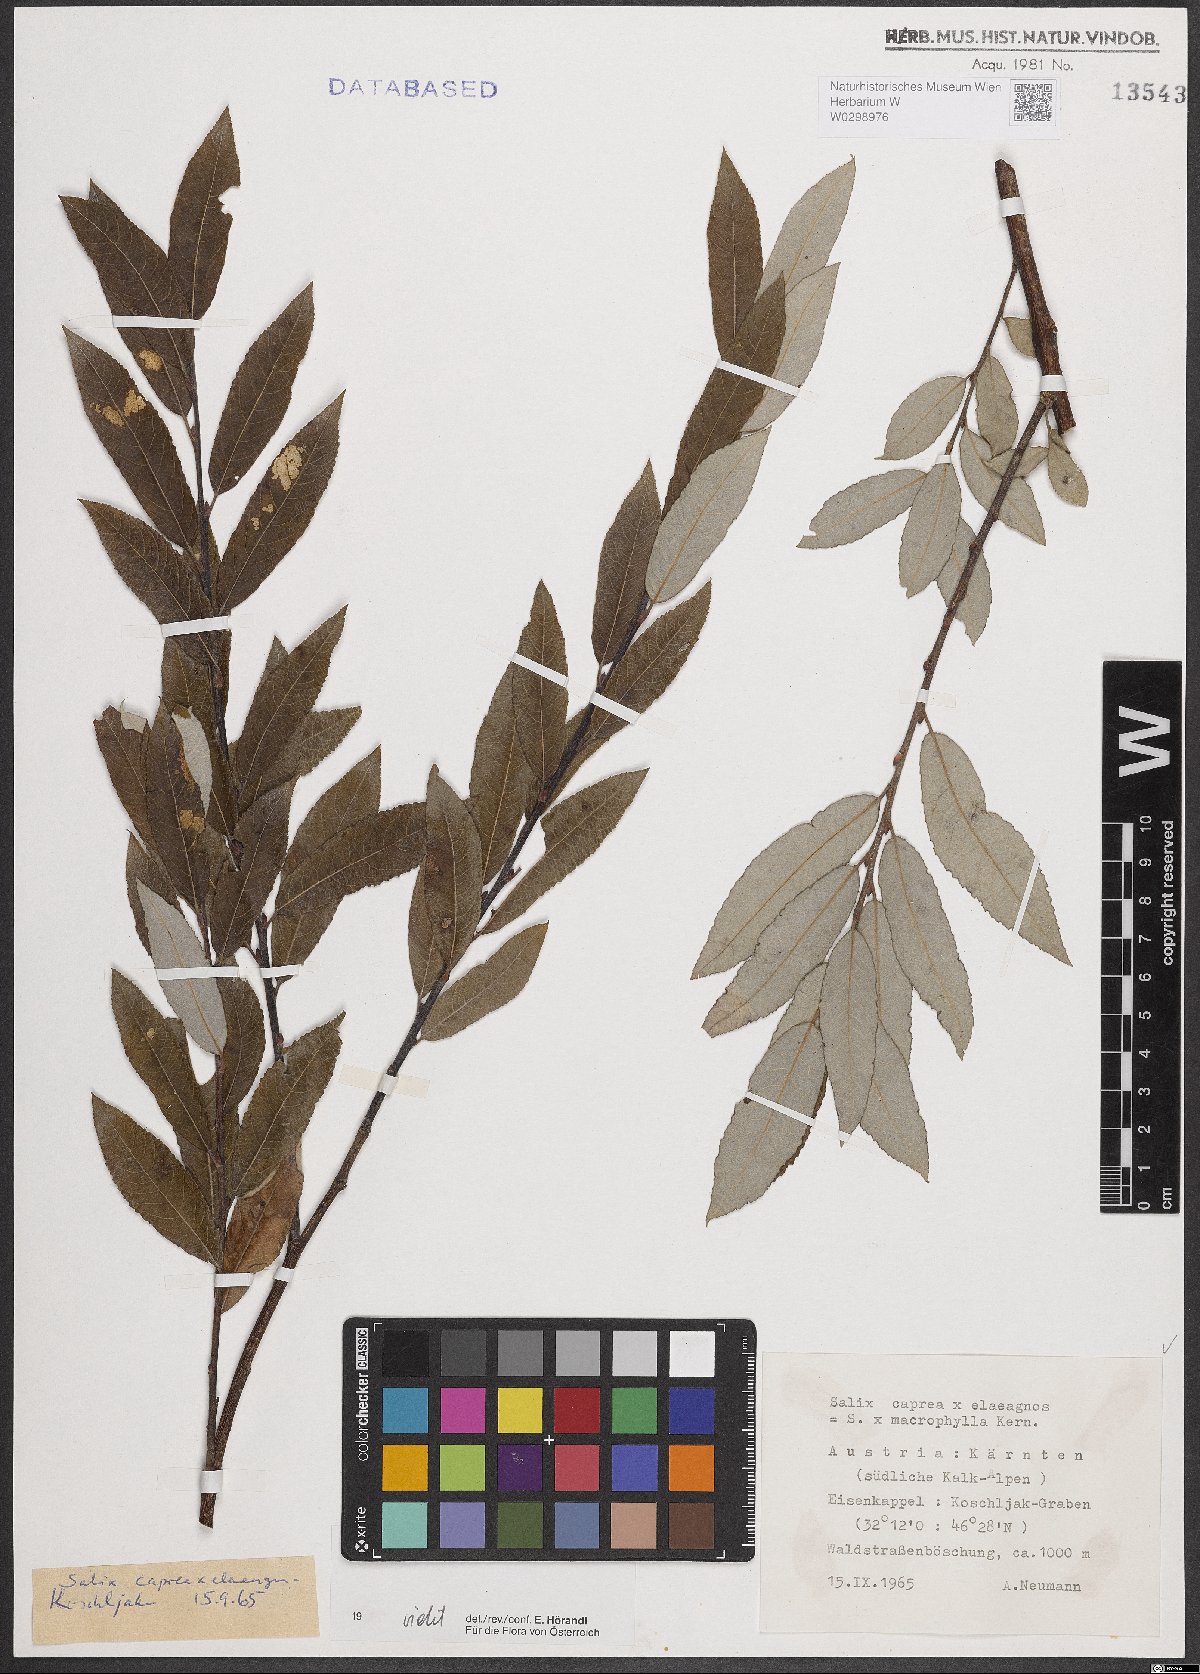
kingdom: Plantae
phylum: Tracheophyta
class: Magnoliopsida
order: Malpighiales
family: Salicaceae
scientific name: Salicaceae
